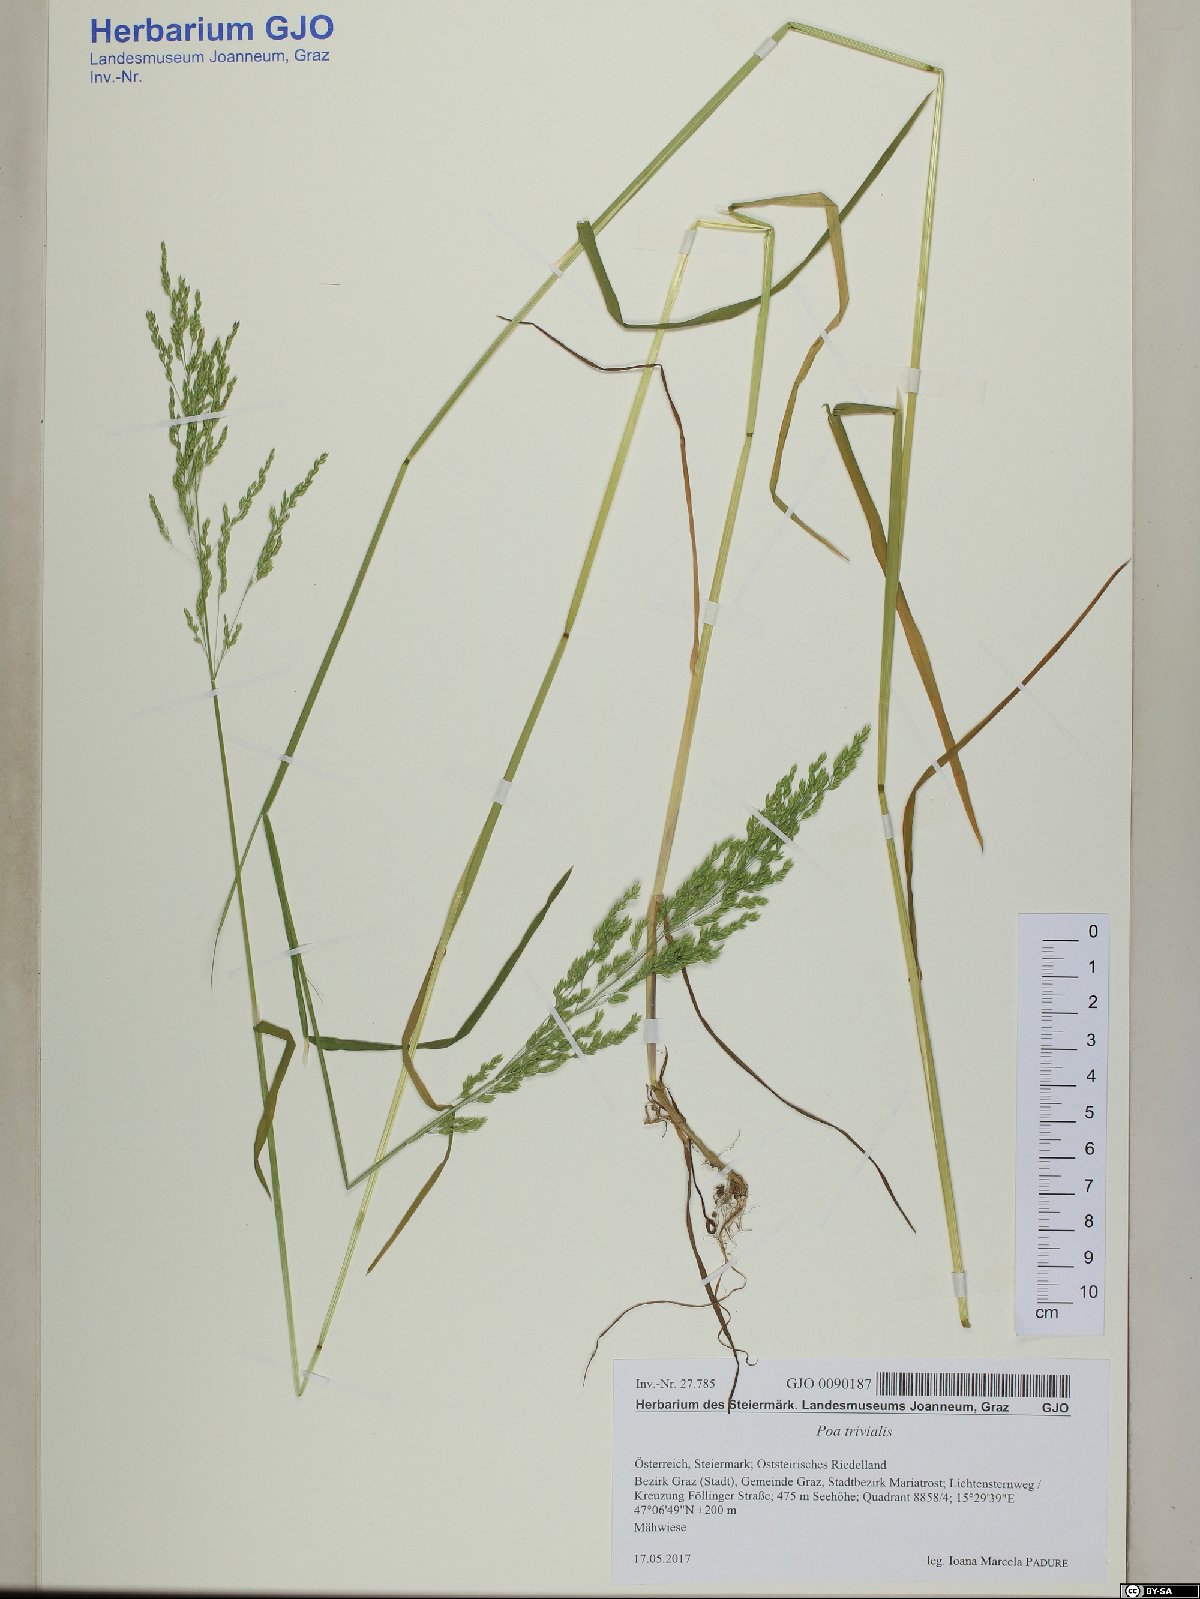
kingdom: Plantae
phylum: Tracheophyta
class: Liliopsida
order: Poales
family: Poaceae
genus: Poa
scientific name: Poa trivialis
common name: Rough bluegrass
